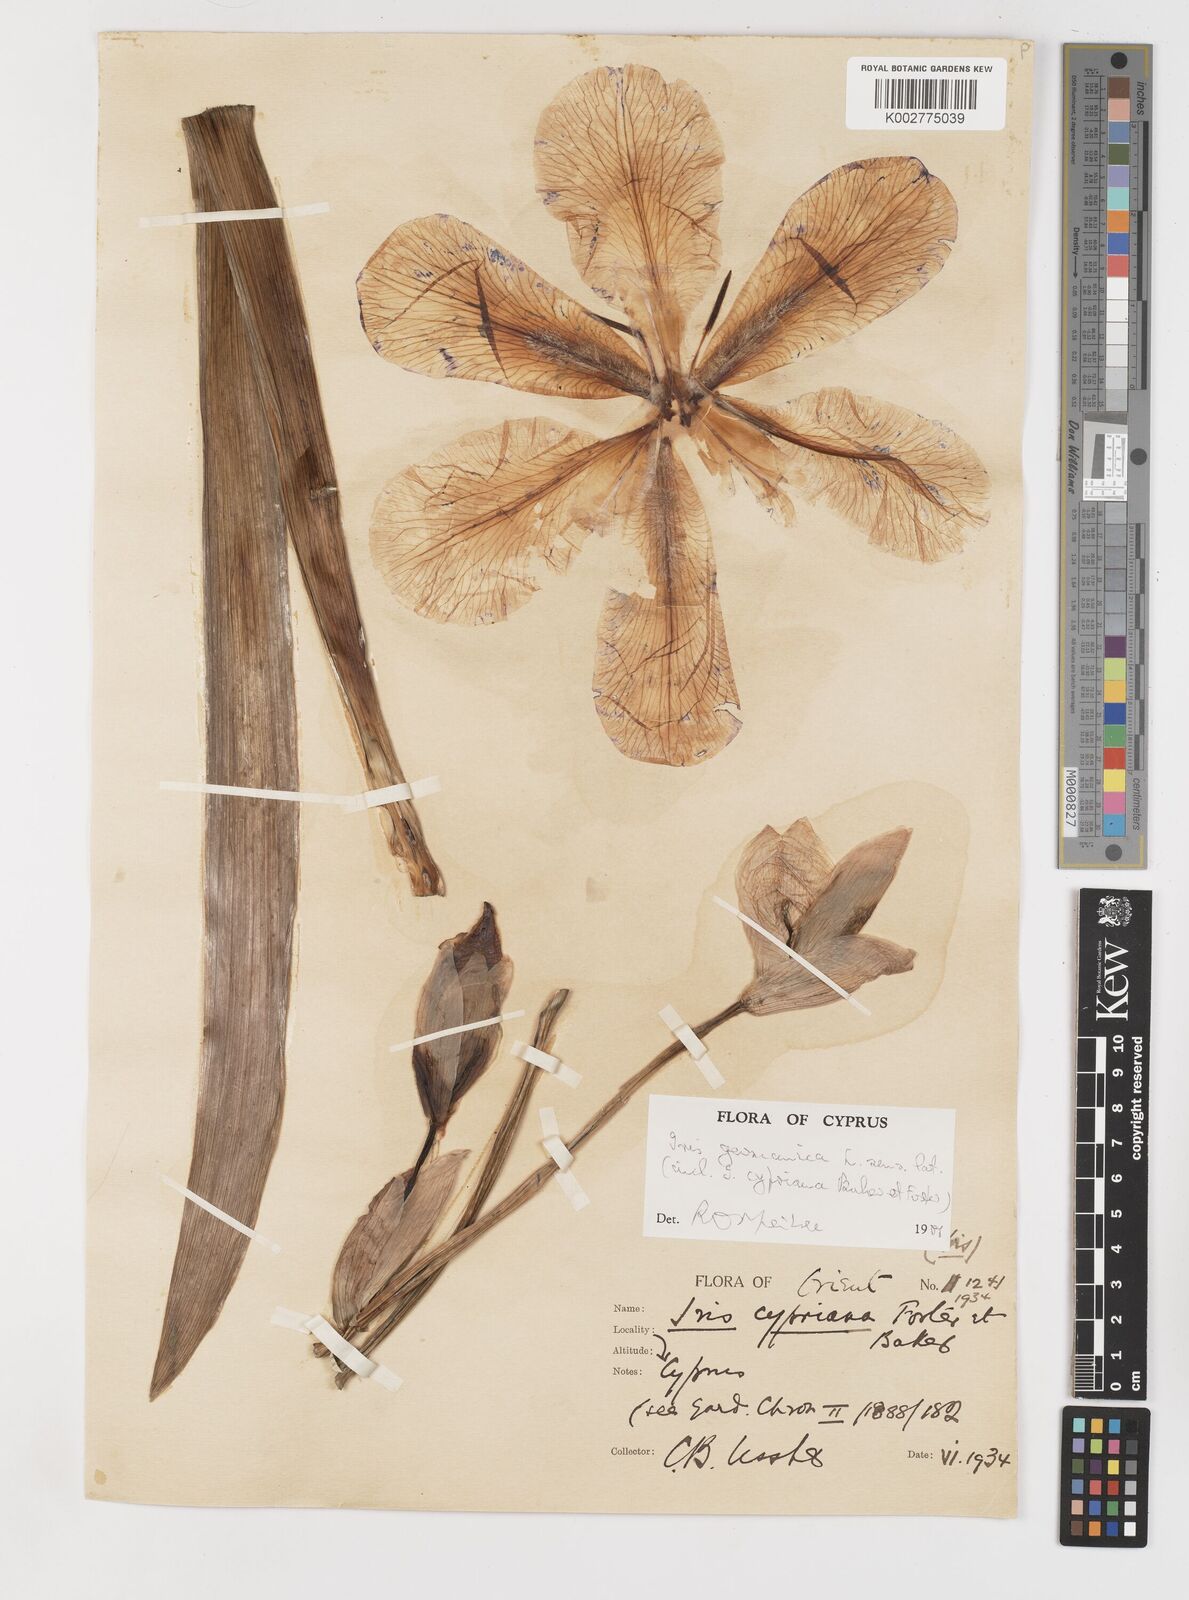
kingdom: Plantae
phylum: Tracheophyta
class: Liliopsida
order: Asparagales
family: Iridaceae
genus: Iris
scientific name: Iris germanica
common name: German iris
